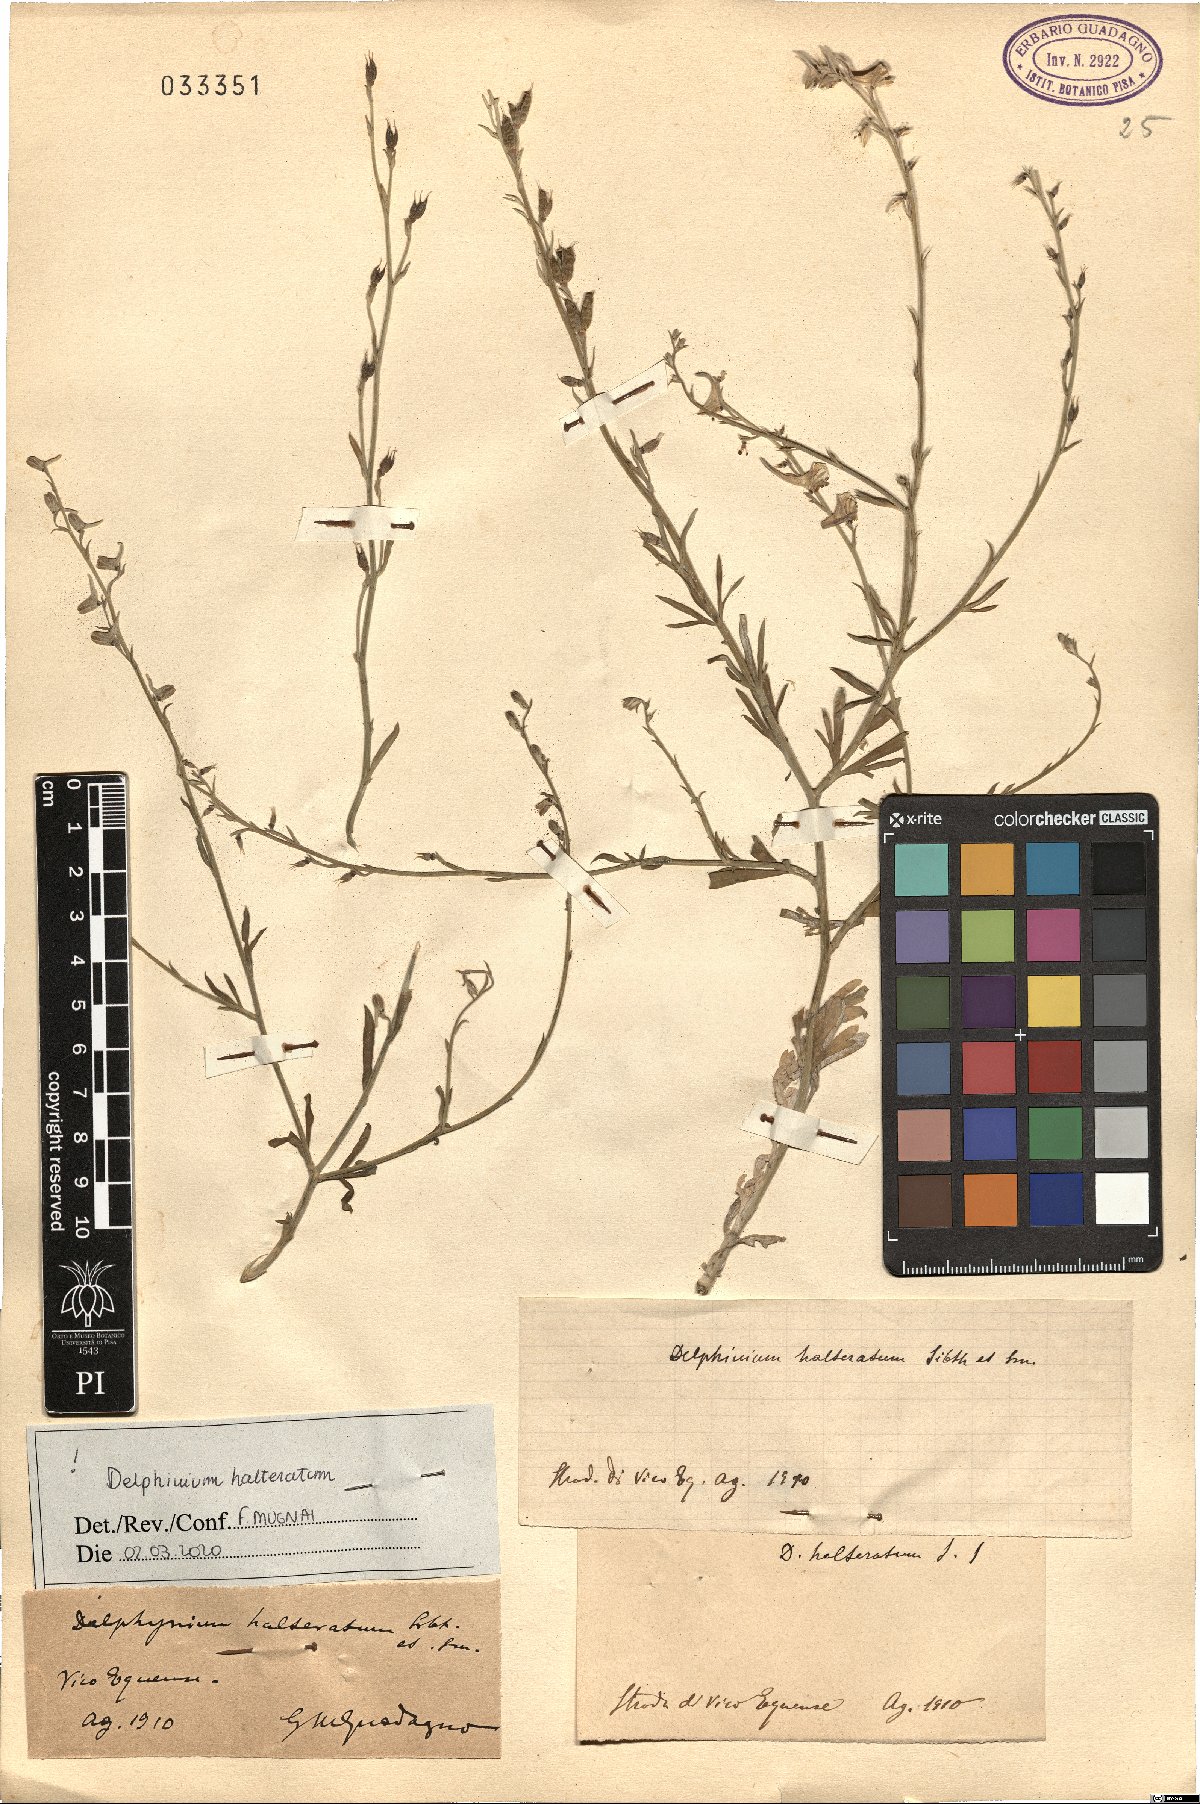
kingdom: Plantae
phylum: Tracheophyta
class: Magnoliopsida
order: Ranunculales
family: Ranunculaceae
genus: Delphinium
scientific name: Delphinium halteratum
